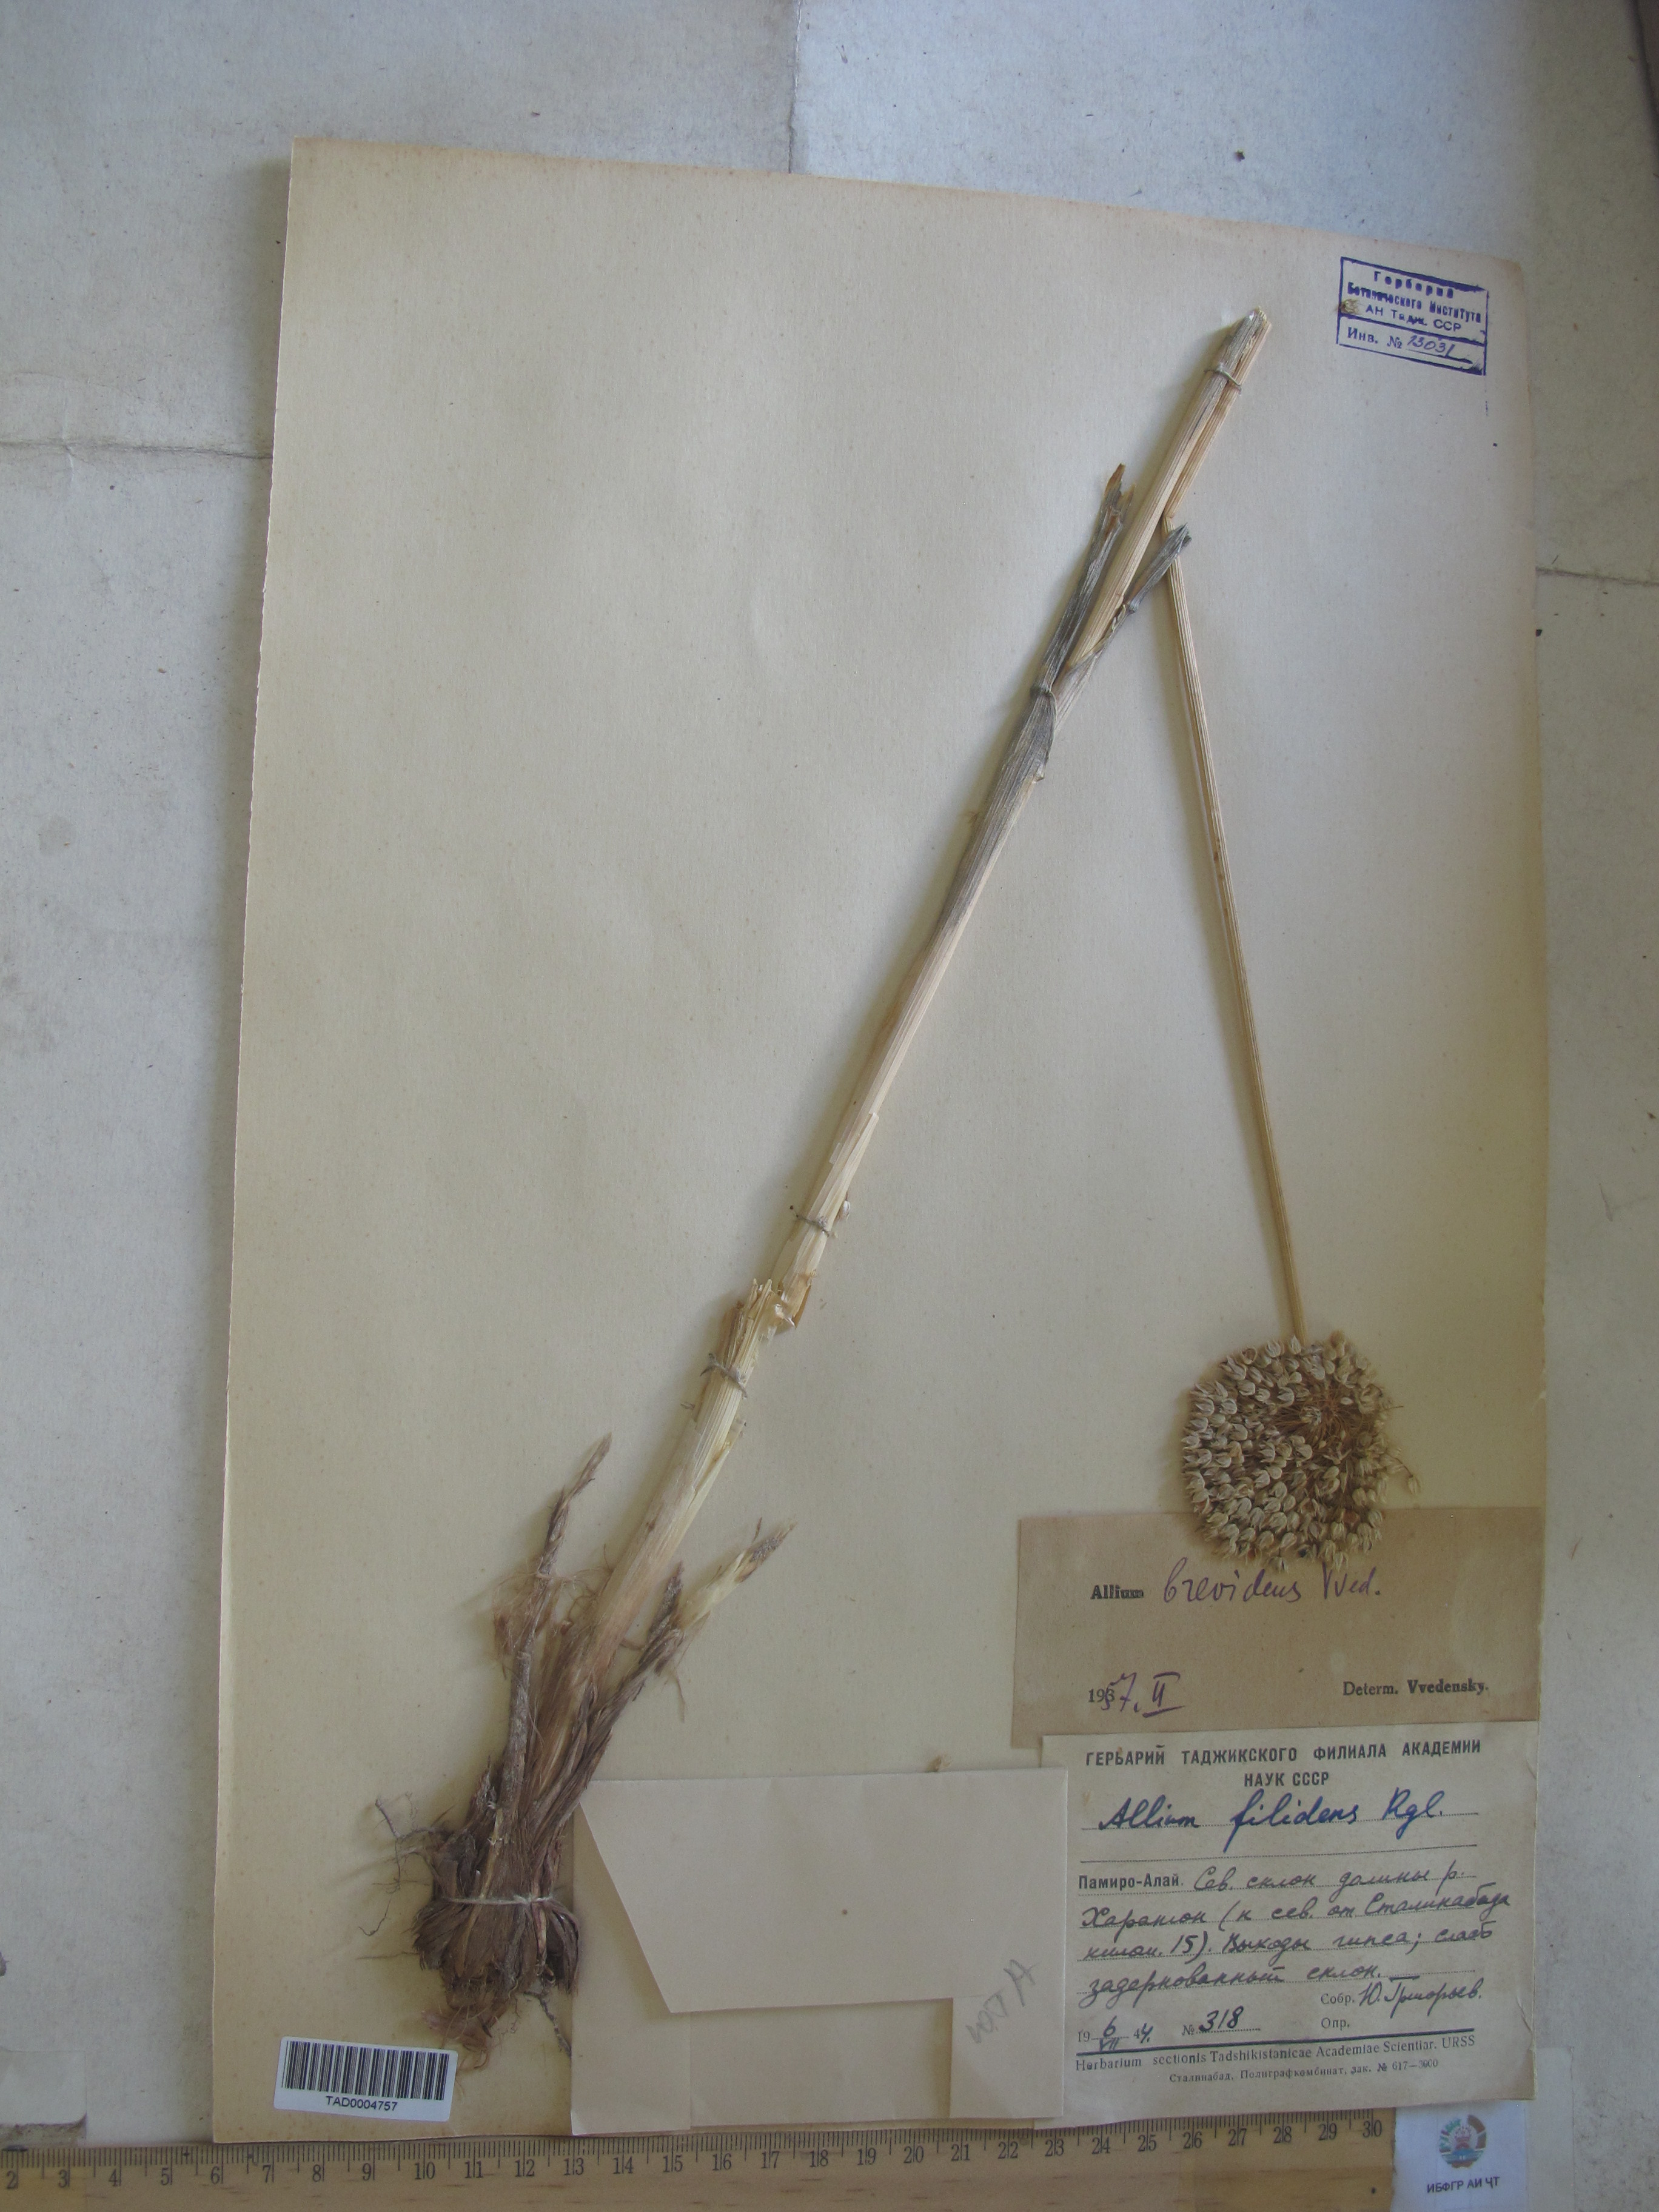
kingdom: Plantae
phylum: Tracheophyta
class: Liliopsida
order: Asparagales
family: Amaryllidaceae
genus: Allium
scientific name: Allium brevidens
